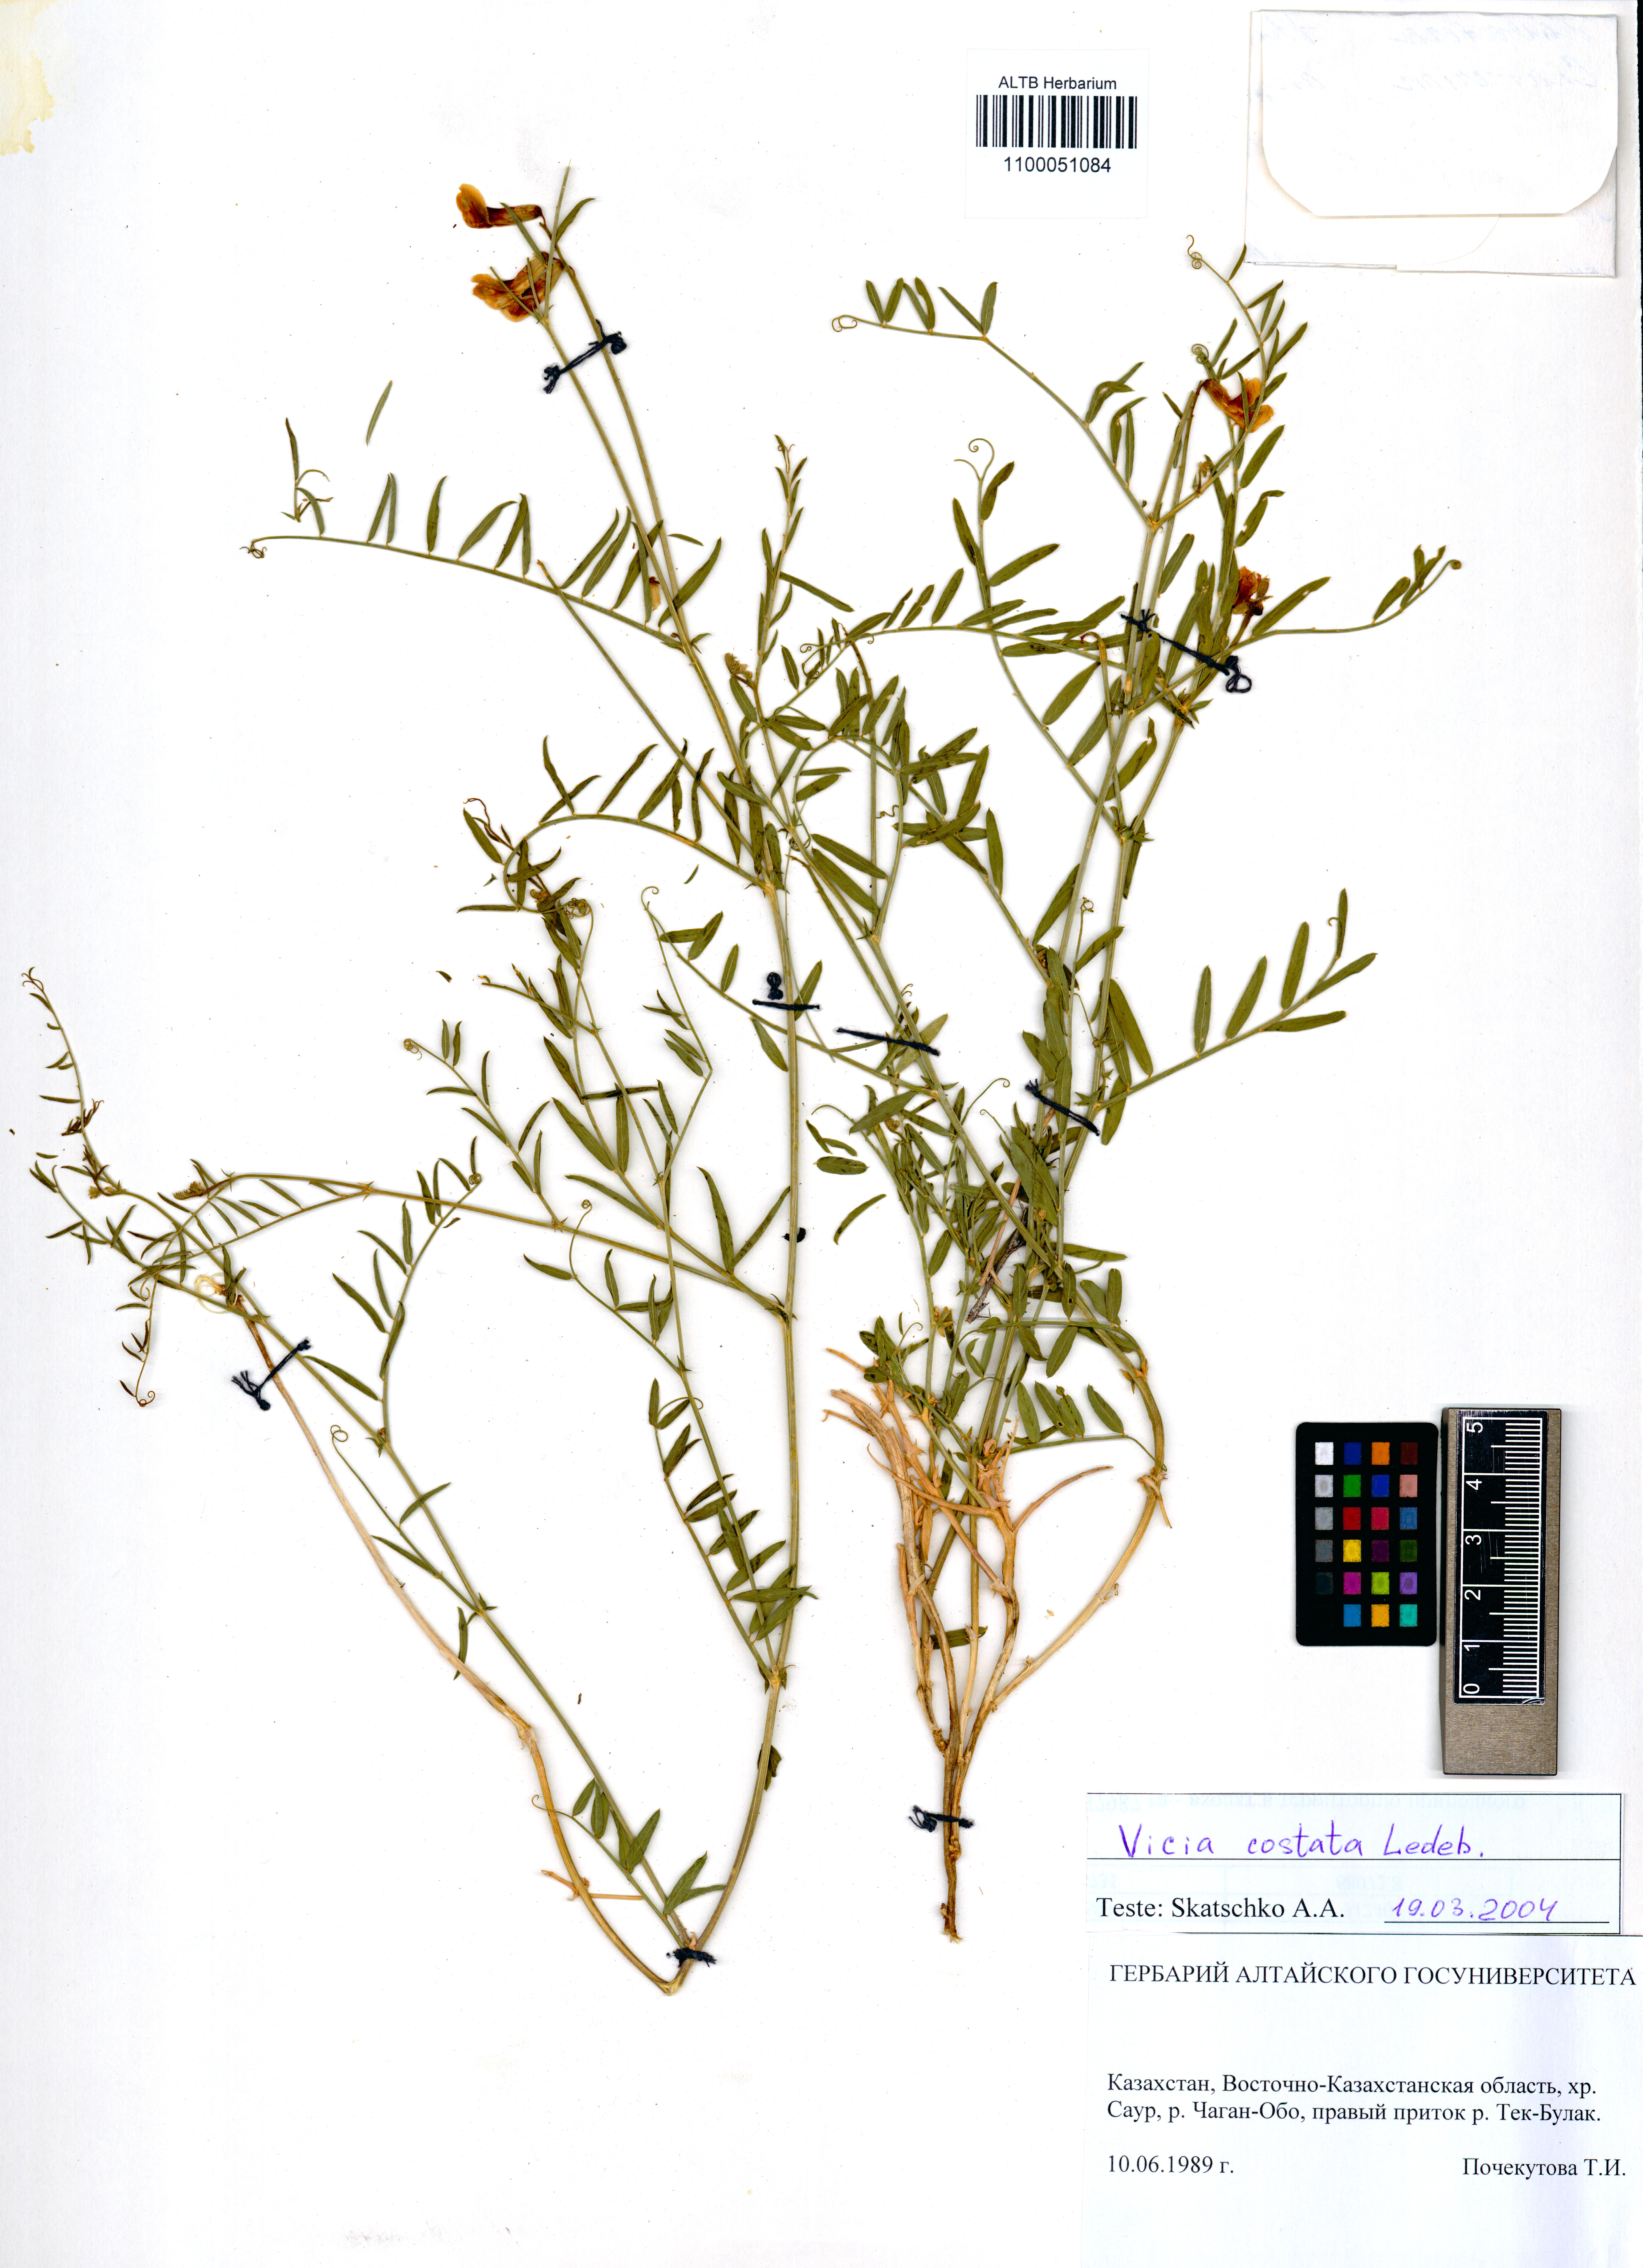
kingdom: Plantae
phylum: Tracheophyta
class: Magnoliopsida
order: Fabales
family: Fabaceae
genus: Vicia
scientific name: Vicia costata
